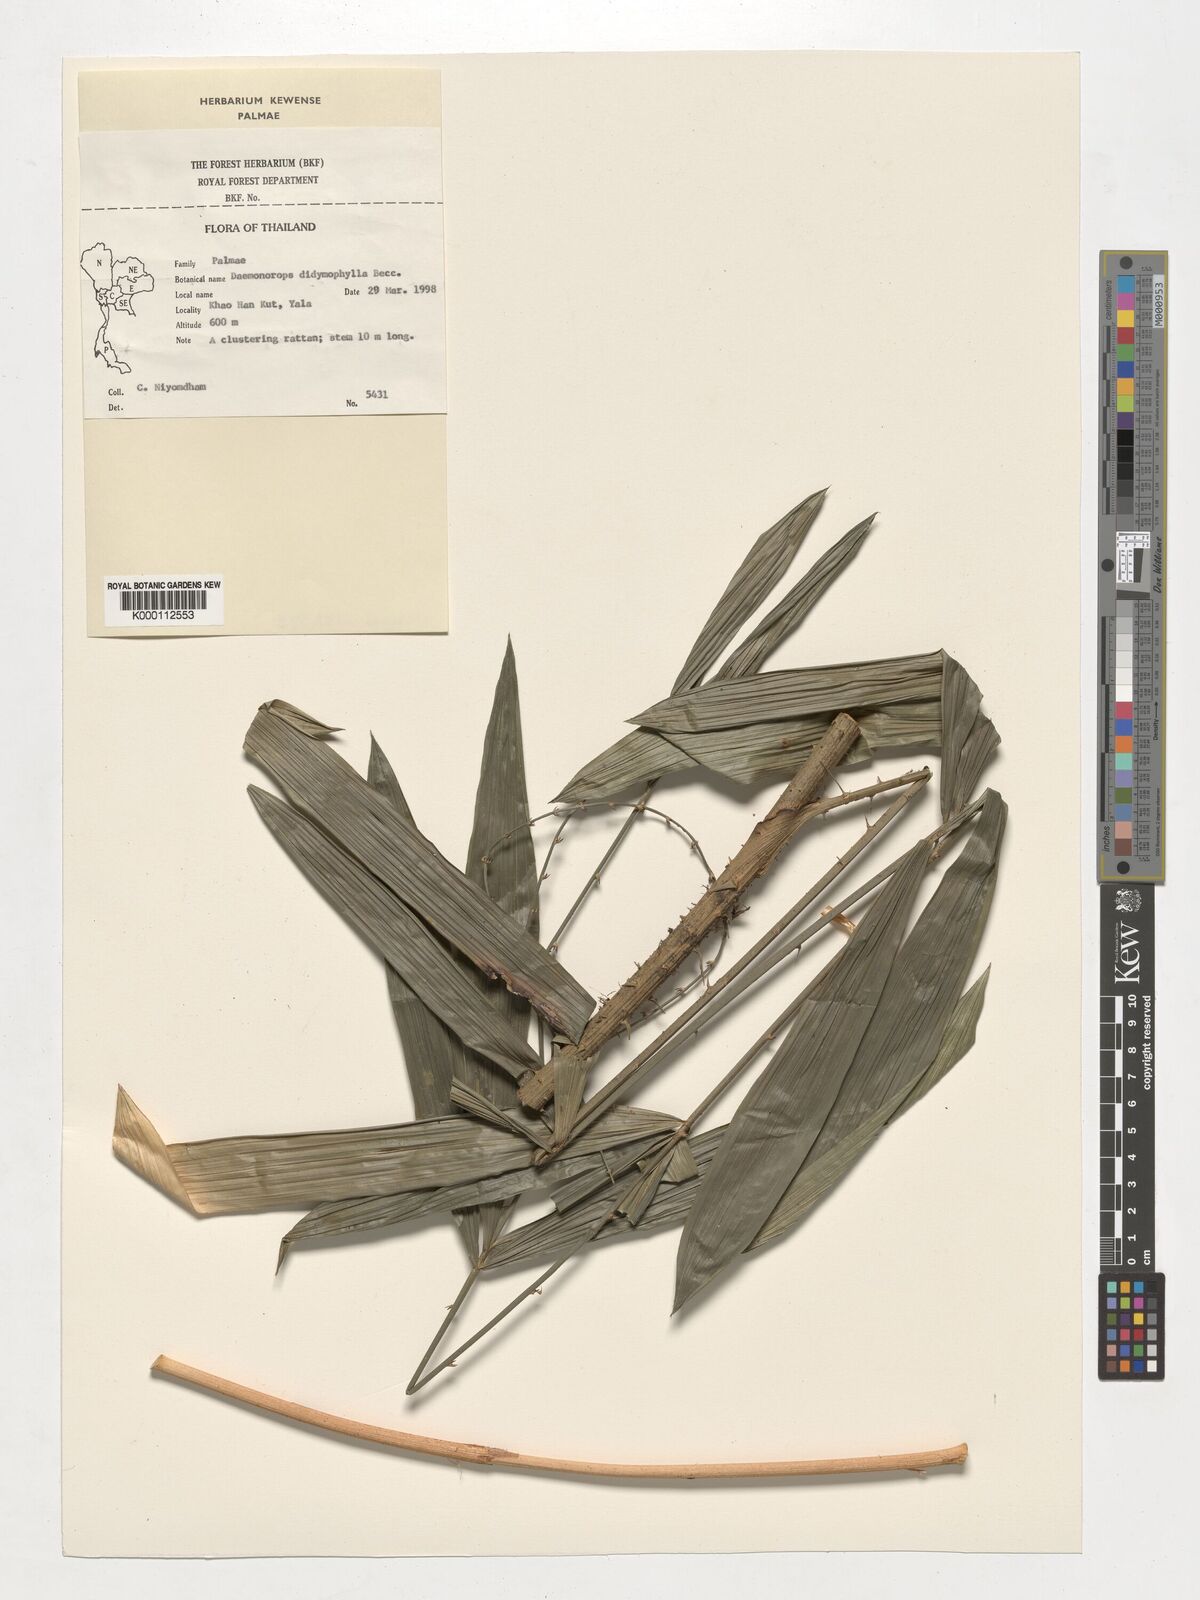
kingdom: Plantae
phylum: Tracheophyta
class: Liliopsida
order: Arecales
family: Arecaceae
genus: Calamus
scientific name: Calamus gracilipes
